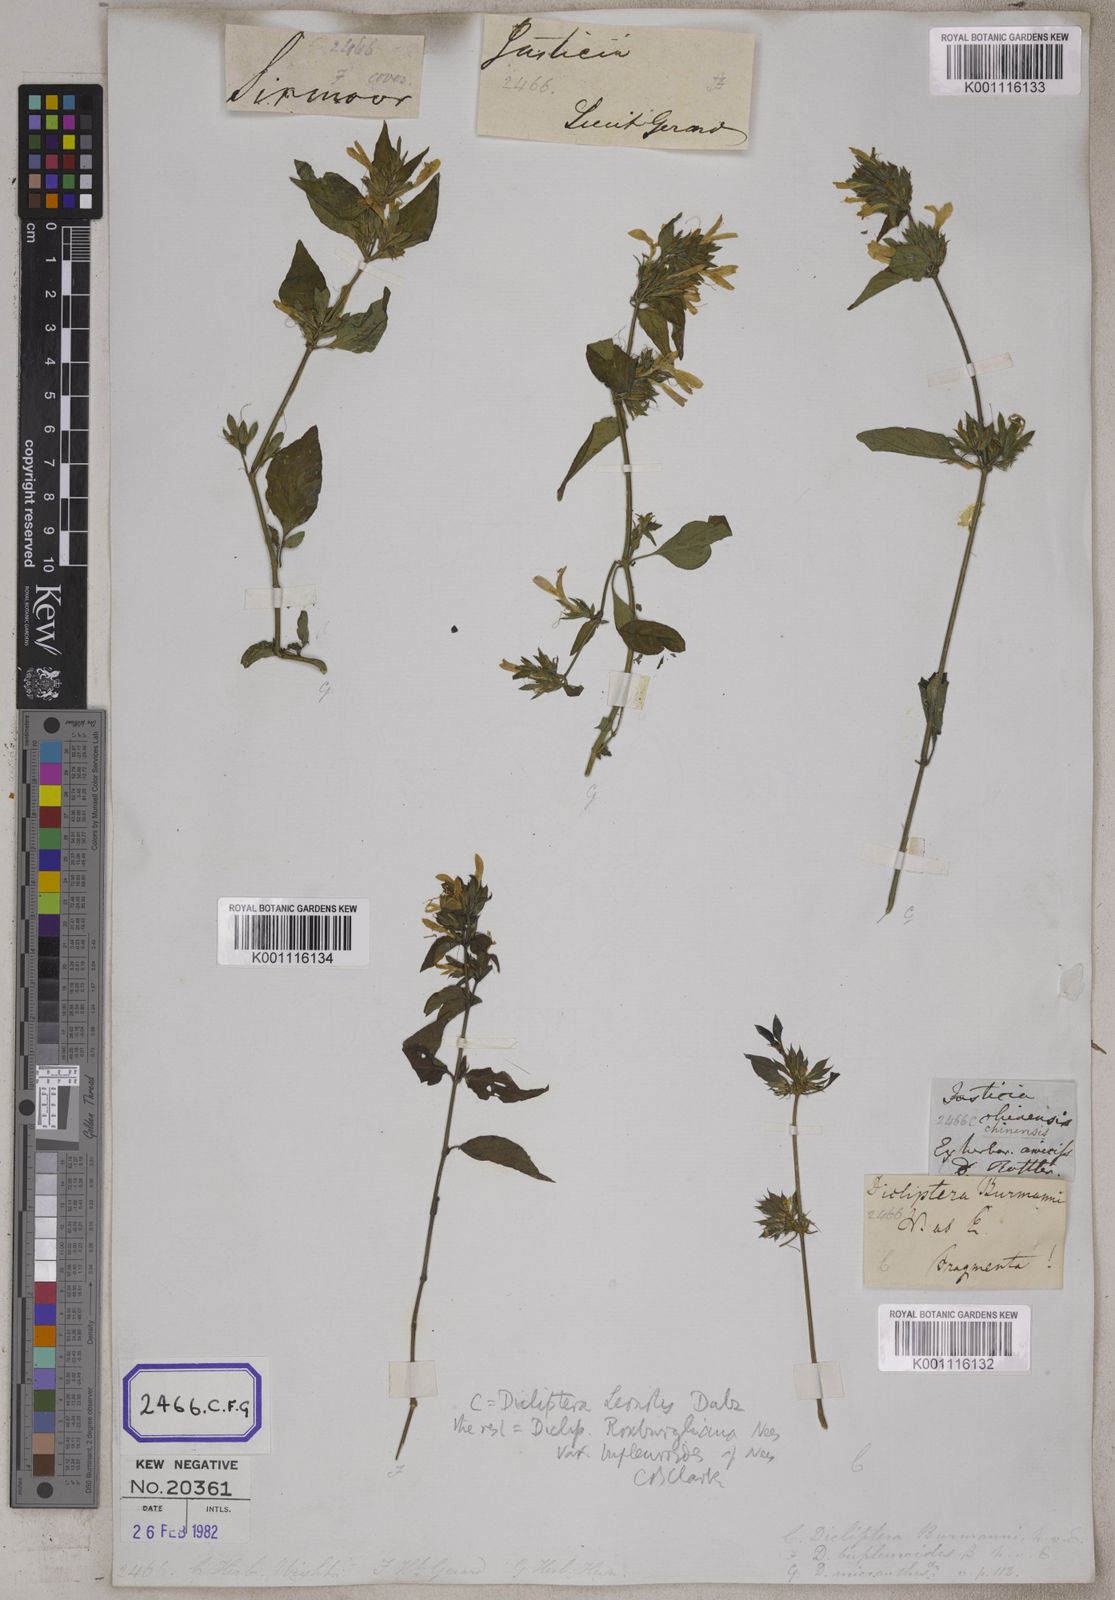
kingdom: Plantae
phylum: Tracheophyta
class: Magnoliopsida
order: Lamiales
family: Acanthaceae
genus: Dicliptera
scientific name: Dicliptera chinensis
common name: Chinese foldwing
